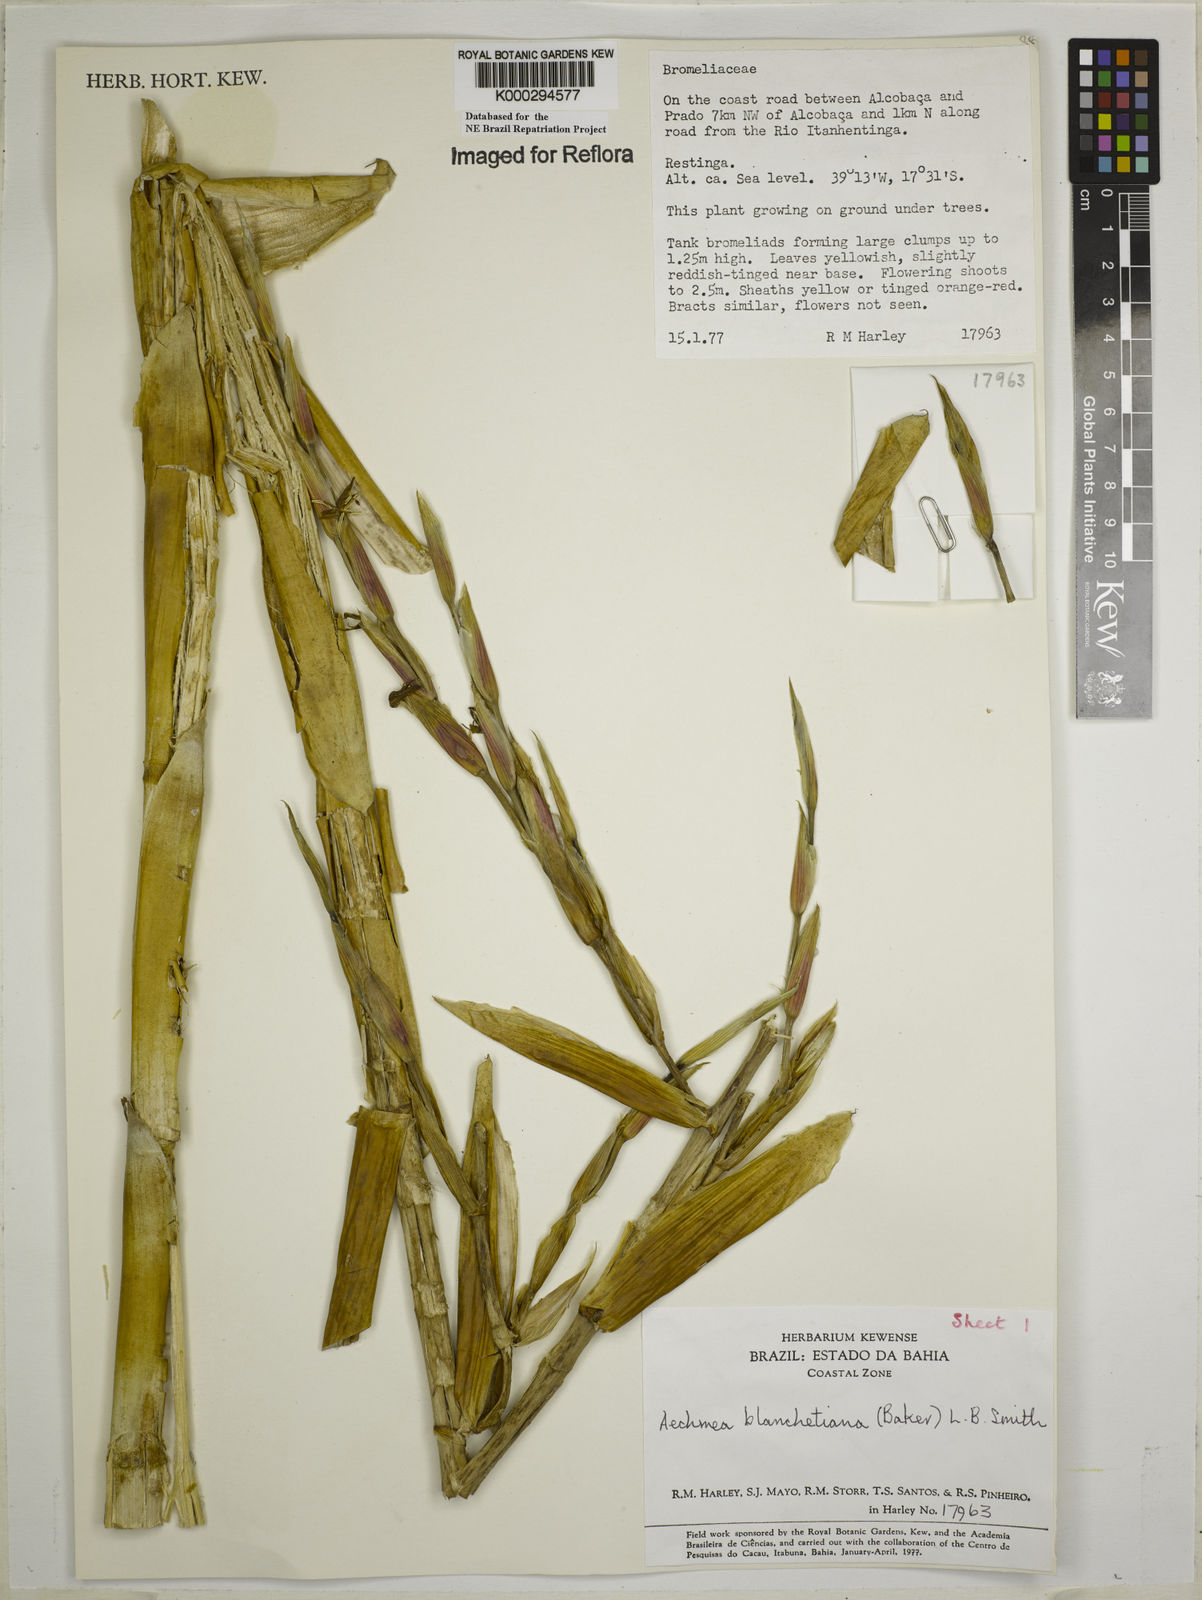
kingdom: Plantae
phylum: Tracheophyta
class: Liliopsida
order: Poales
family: Bromeliaceae
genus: Aechmea
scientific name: Aechmea blanchetiana
